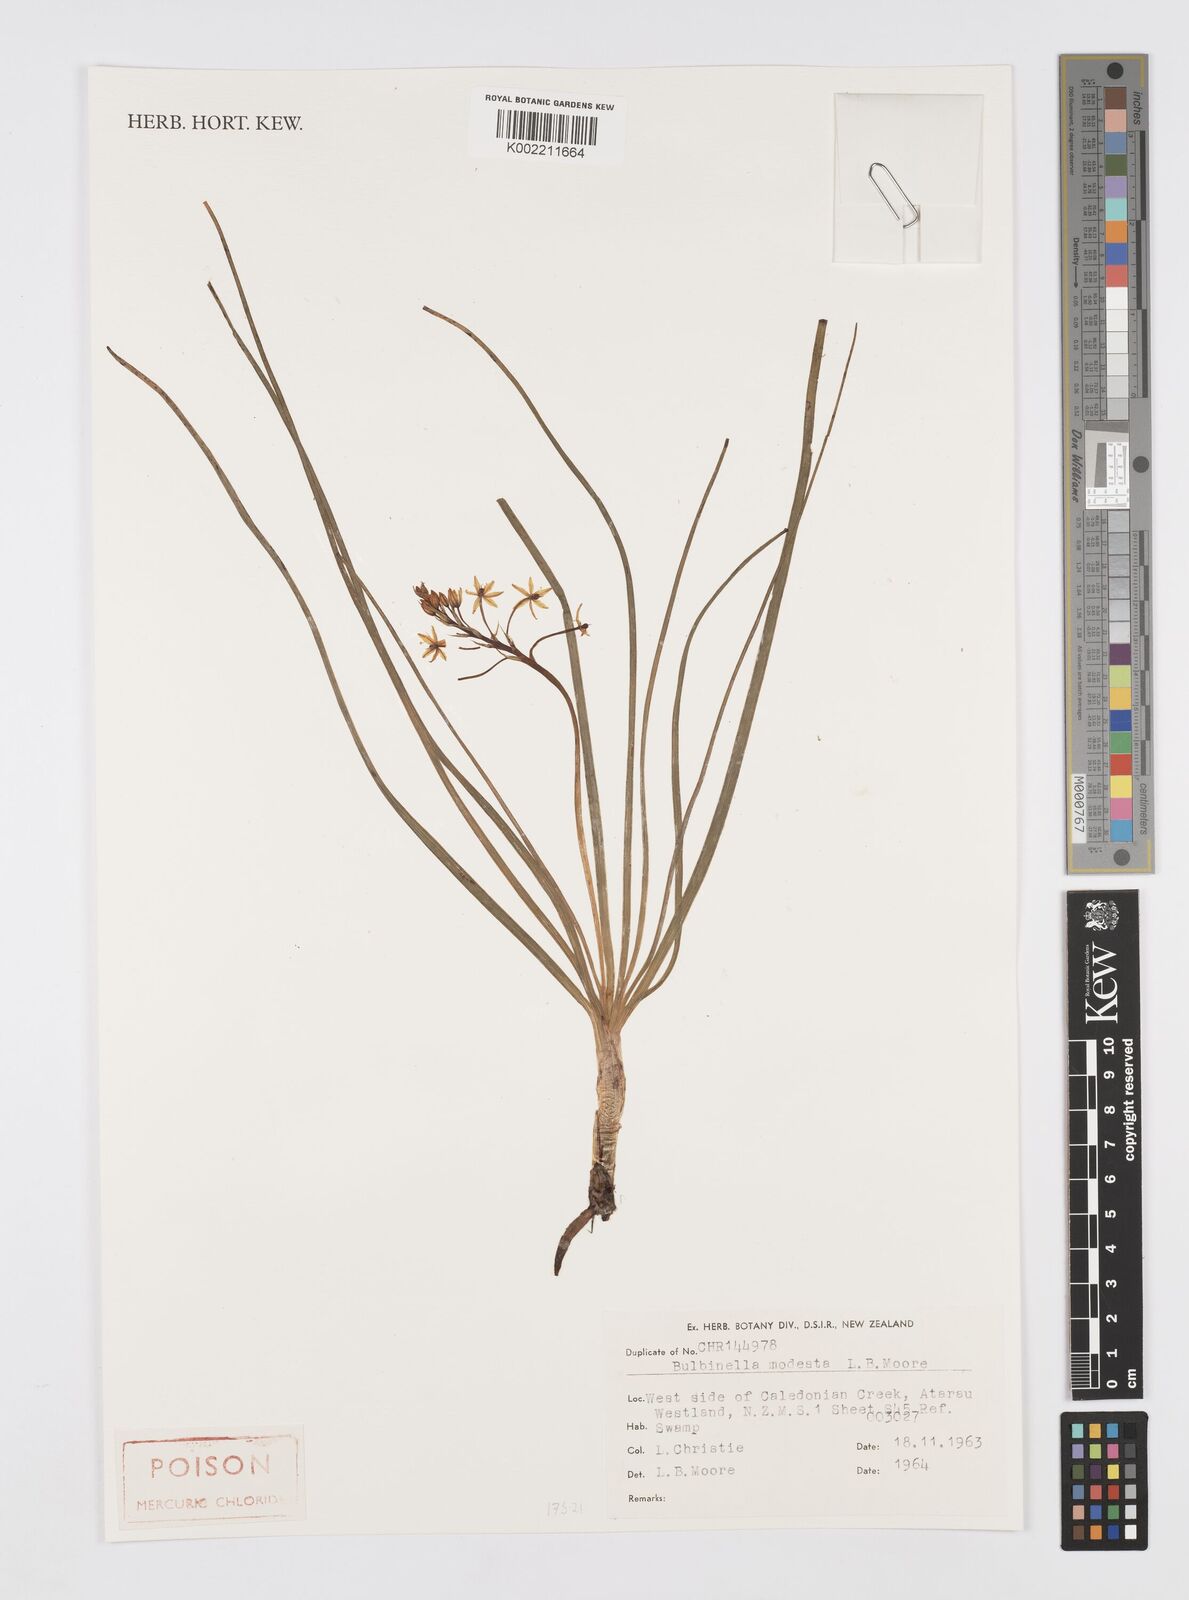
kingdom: Plantae
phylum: Tracheophyta
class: Liliopsida
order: Asparagales
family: Asphodelaceae
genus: Bulbinella
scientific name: Bulbinella modesta
